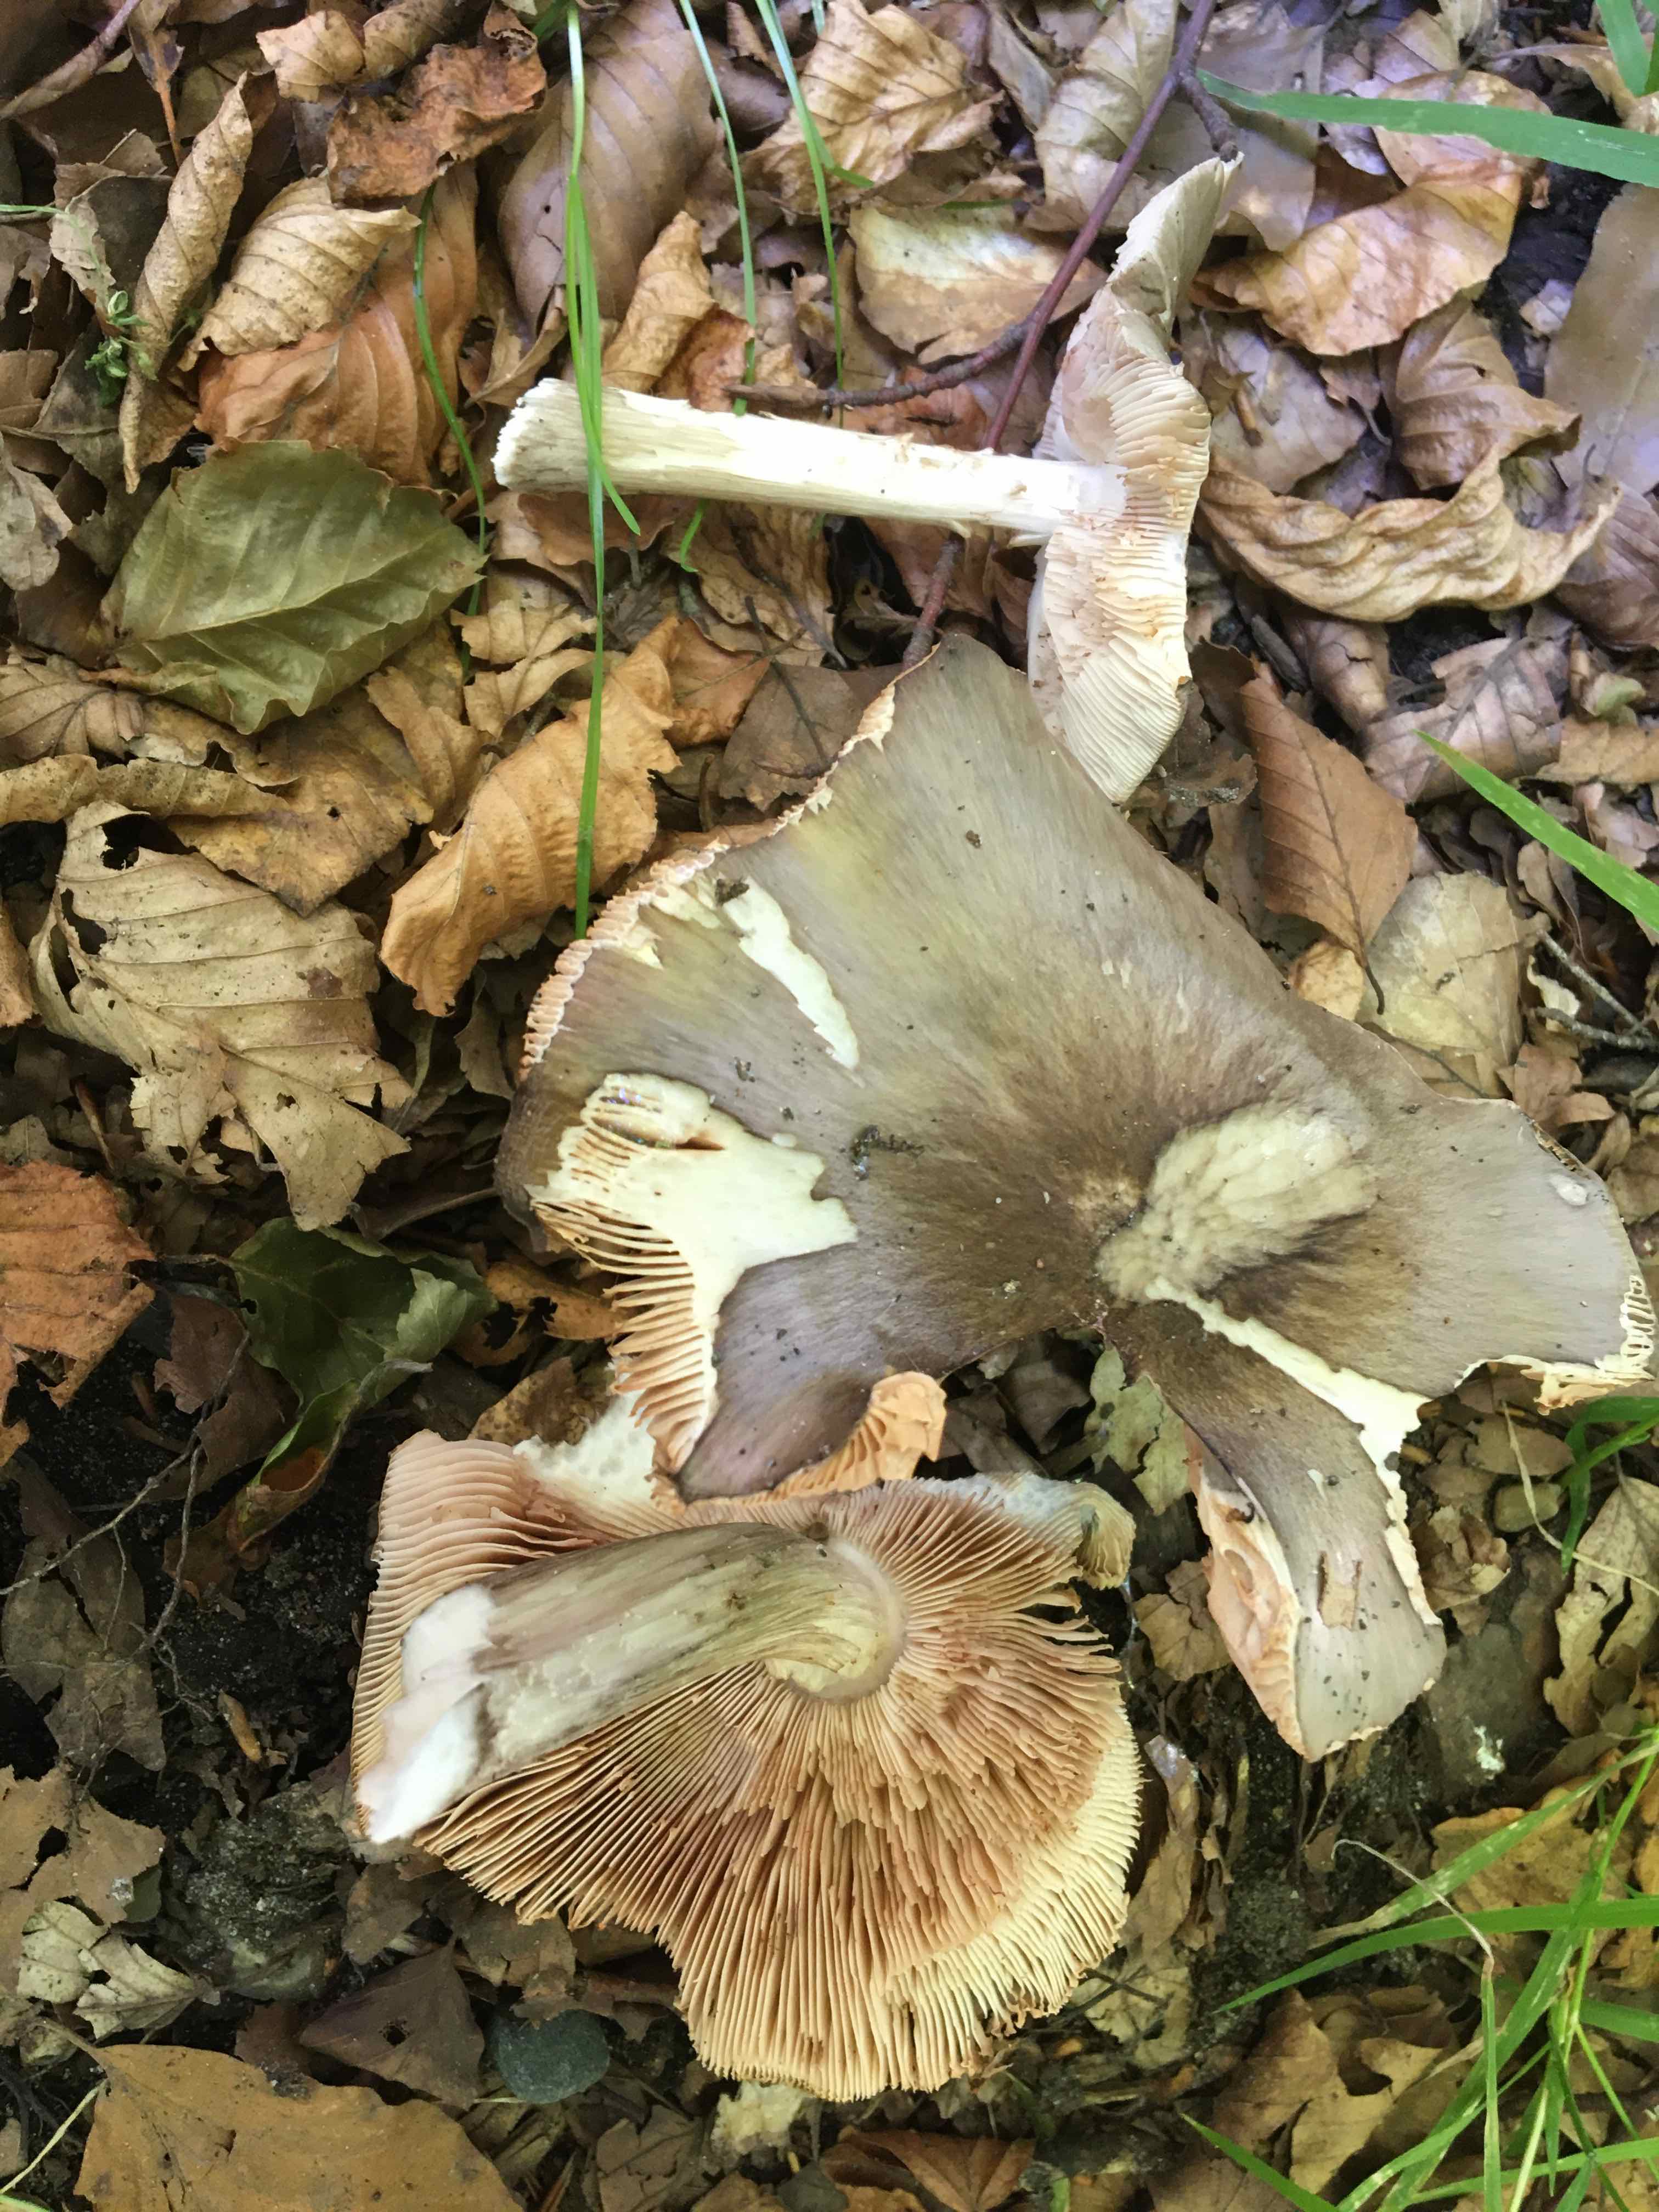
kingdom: Fungi
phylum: Basidiomycota
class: Agaricomycetes
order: Agaricales
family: Tricholomataceae
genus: Megacollybia
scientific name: Megacollybia platyphylla
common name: bredbladet væbnerhat
